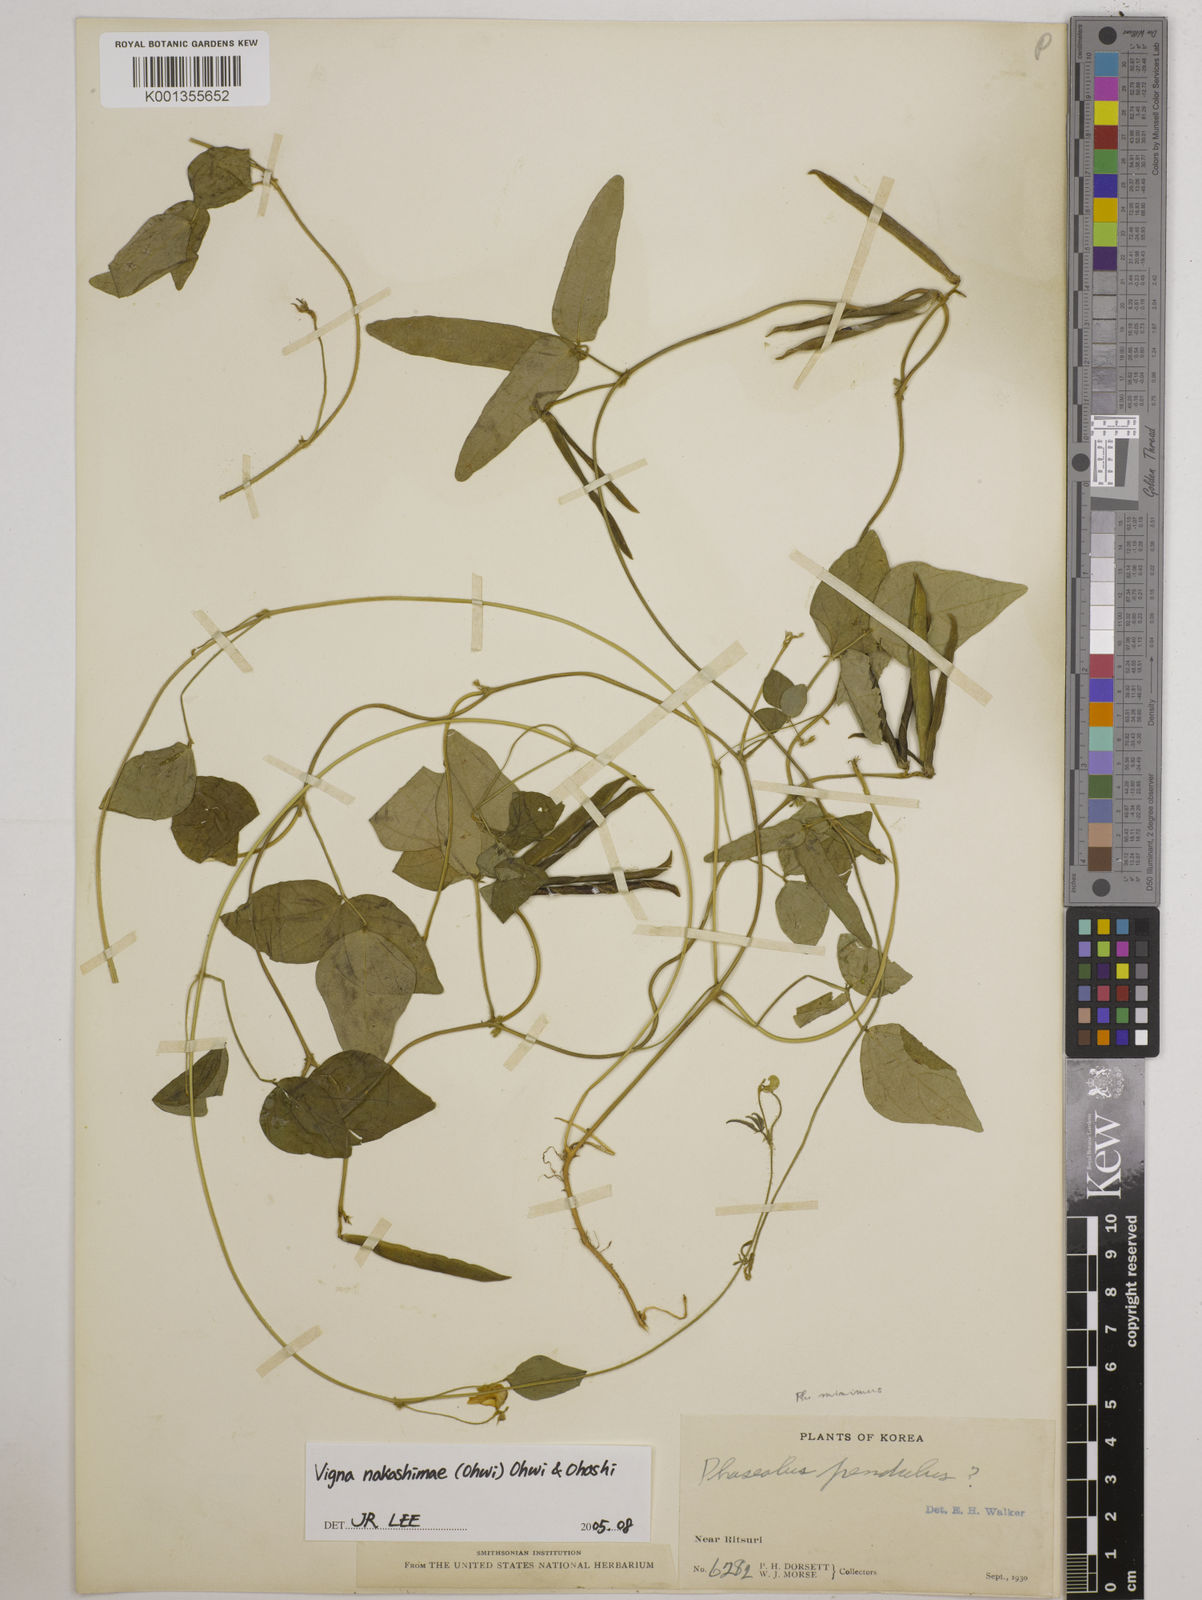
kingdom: Plantae
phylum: Tracheophyta
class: Magnoliopsida
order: Fabales
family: Fabaceae
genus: Vigna
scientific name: Vigna minima
